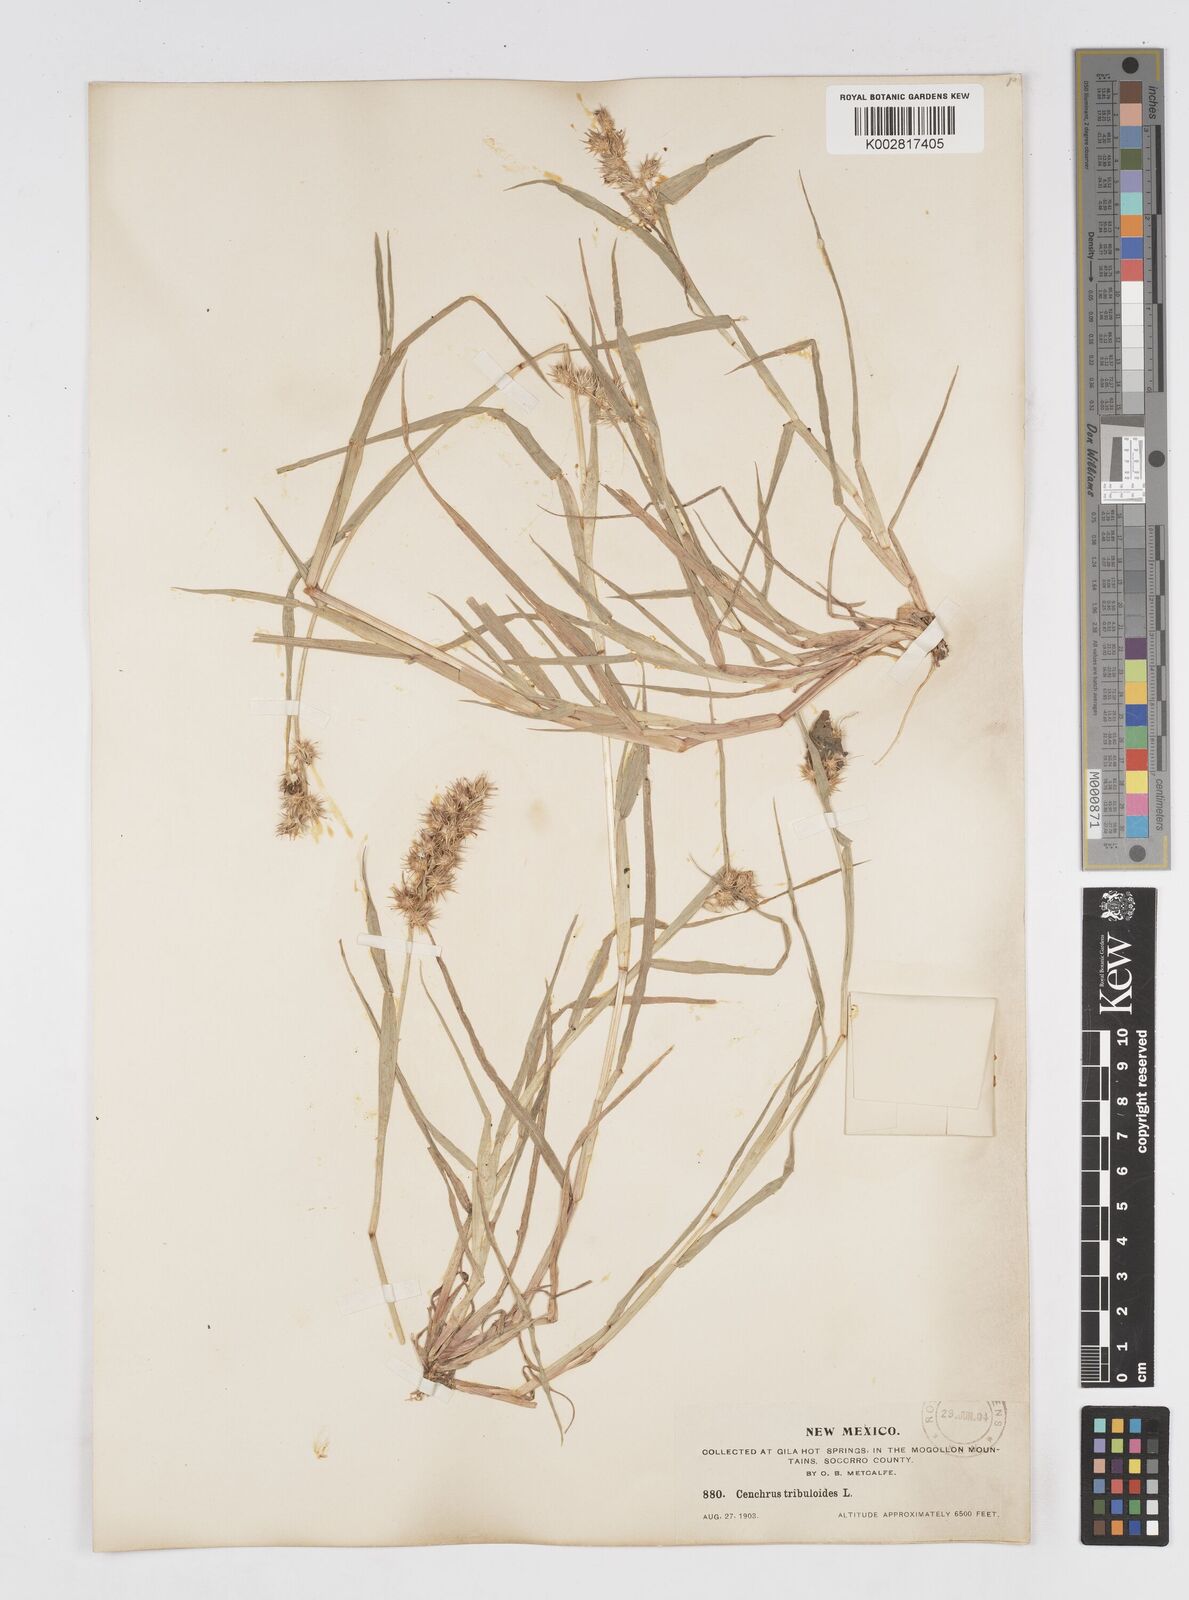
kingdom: Plantae
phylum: Tracheophyta
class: Liliopsida
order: Poales
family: Poaceae
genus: Cenchrus
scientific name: Cenchrus longispinus
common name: Mat sandbur
